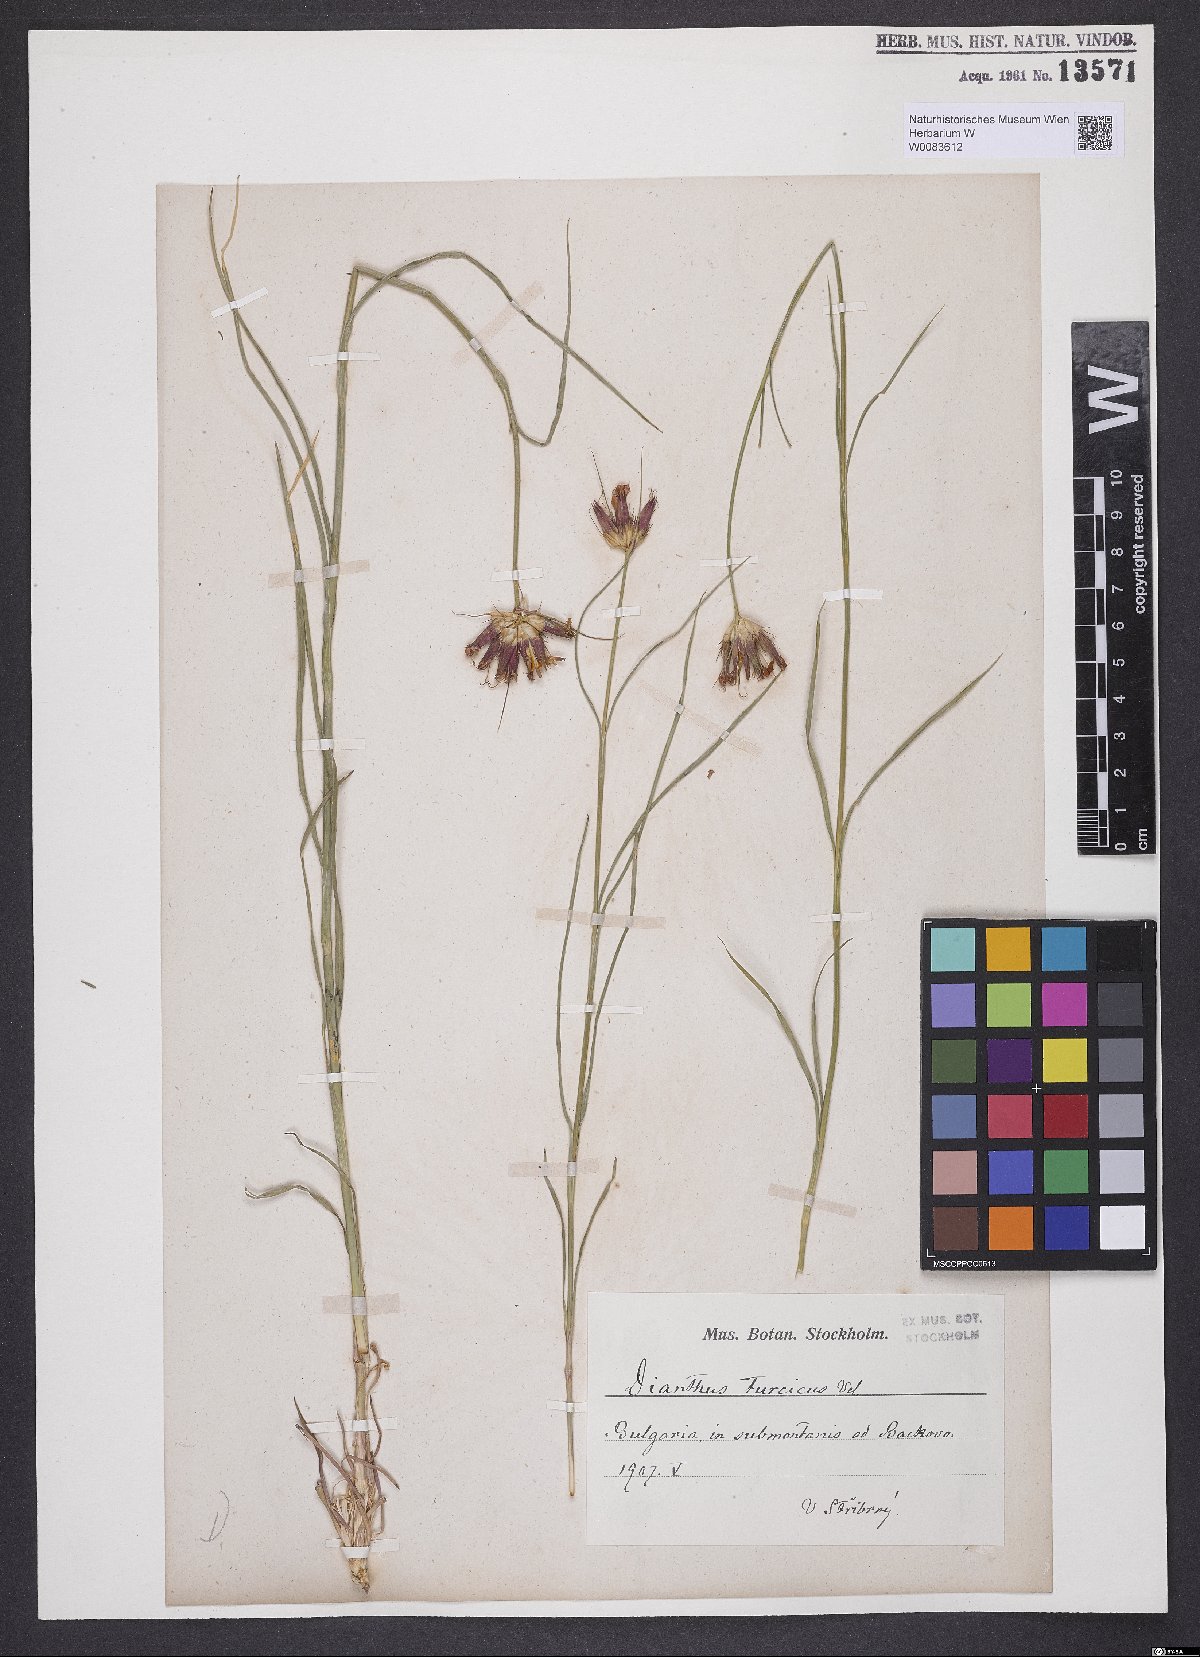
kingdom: Plantae
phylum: Tracheophyta
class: Magnoliopsida
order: Caryophyllales
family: Caryophyllaceae
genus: Dianthus
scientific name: Dianthus cruentus
